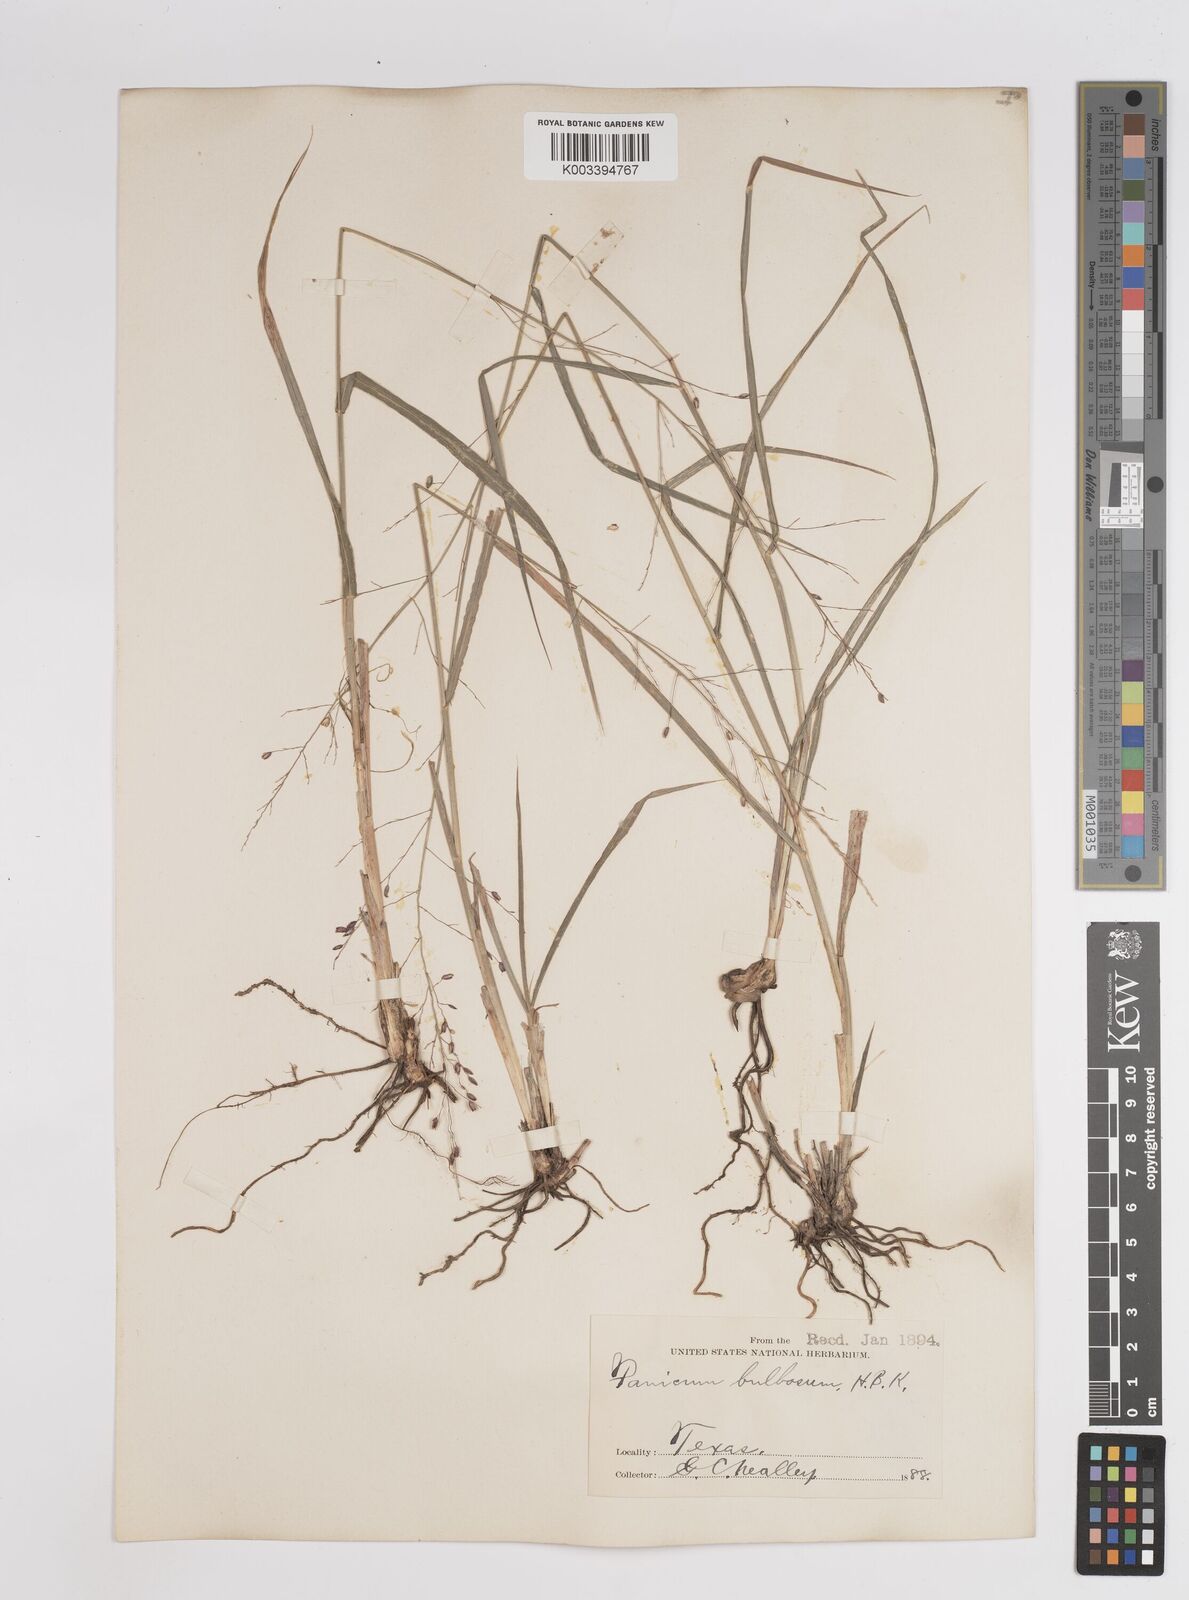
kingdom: Plantae
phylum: Tracheophyta
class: Liliopsida
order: Poales
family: Poaceae
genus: Zuloagaea
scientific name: Zuloagaea bulbosa
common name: Canyon panic grass
